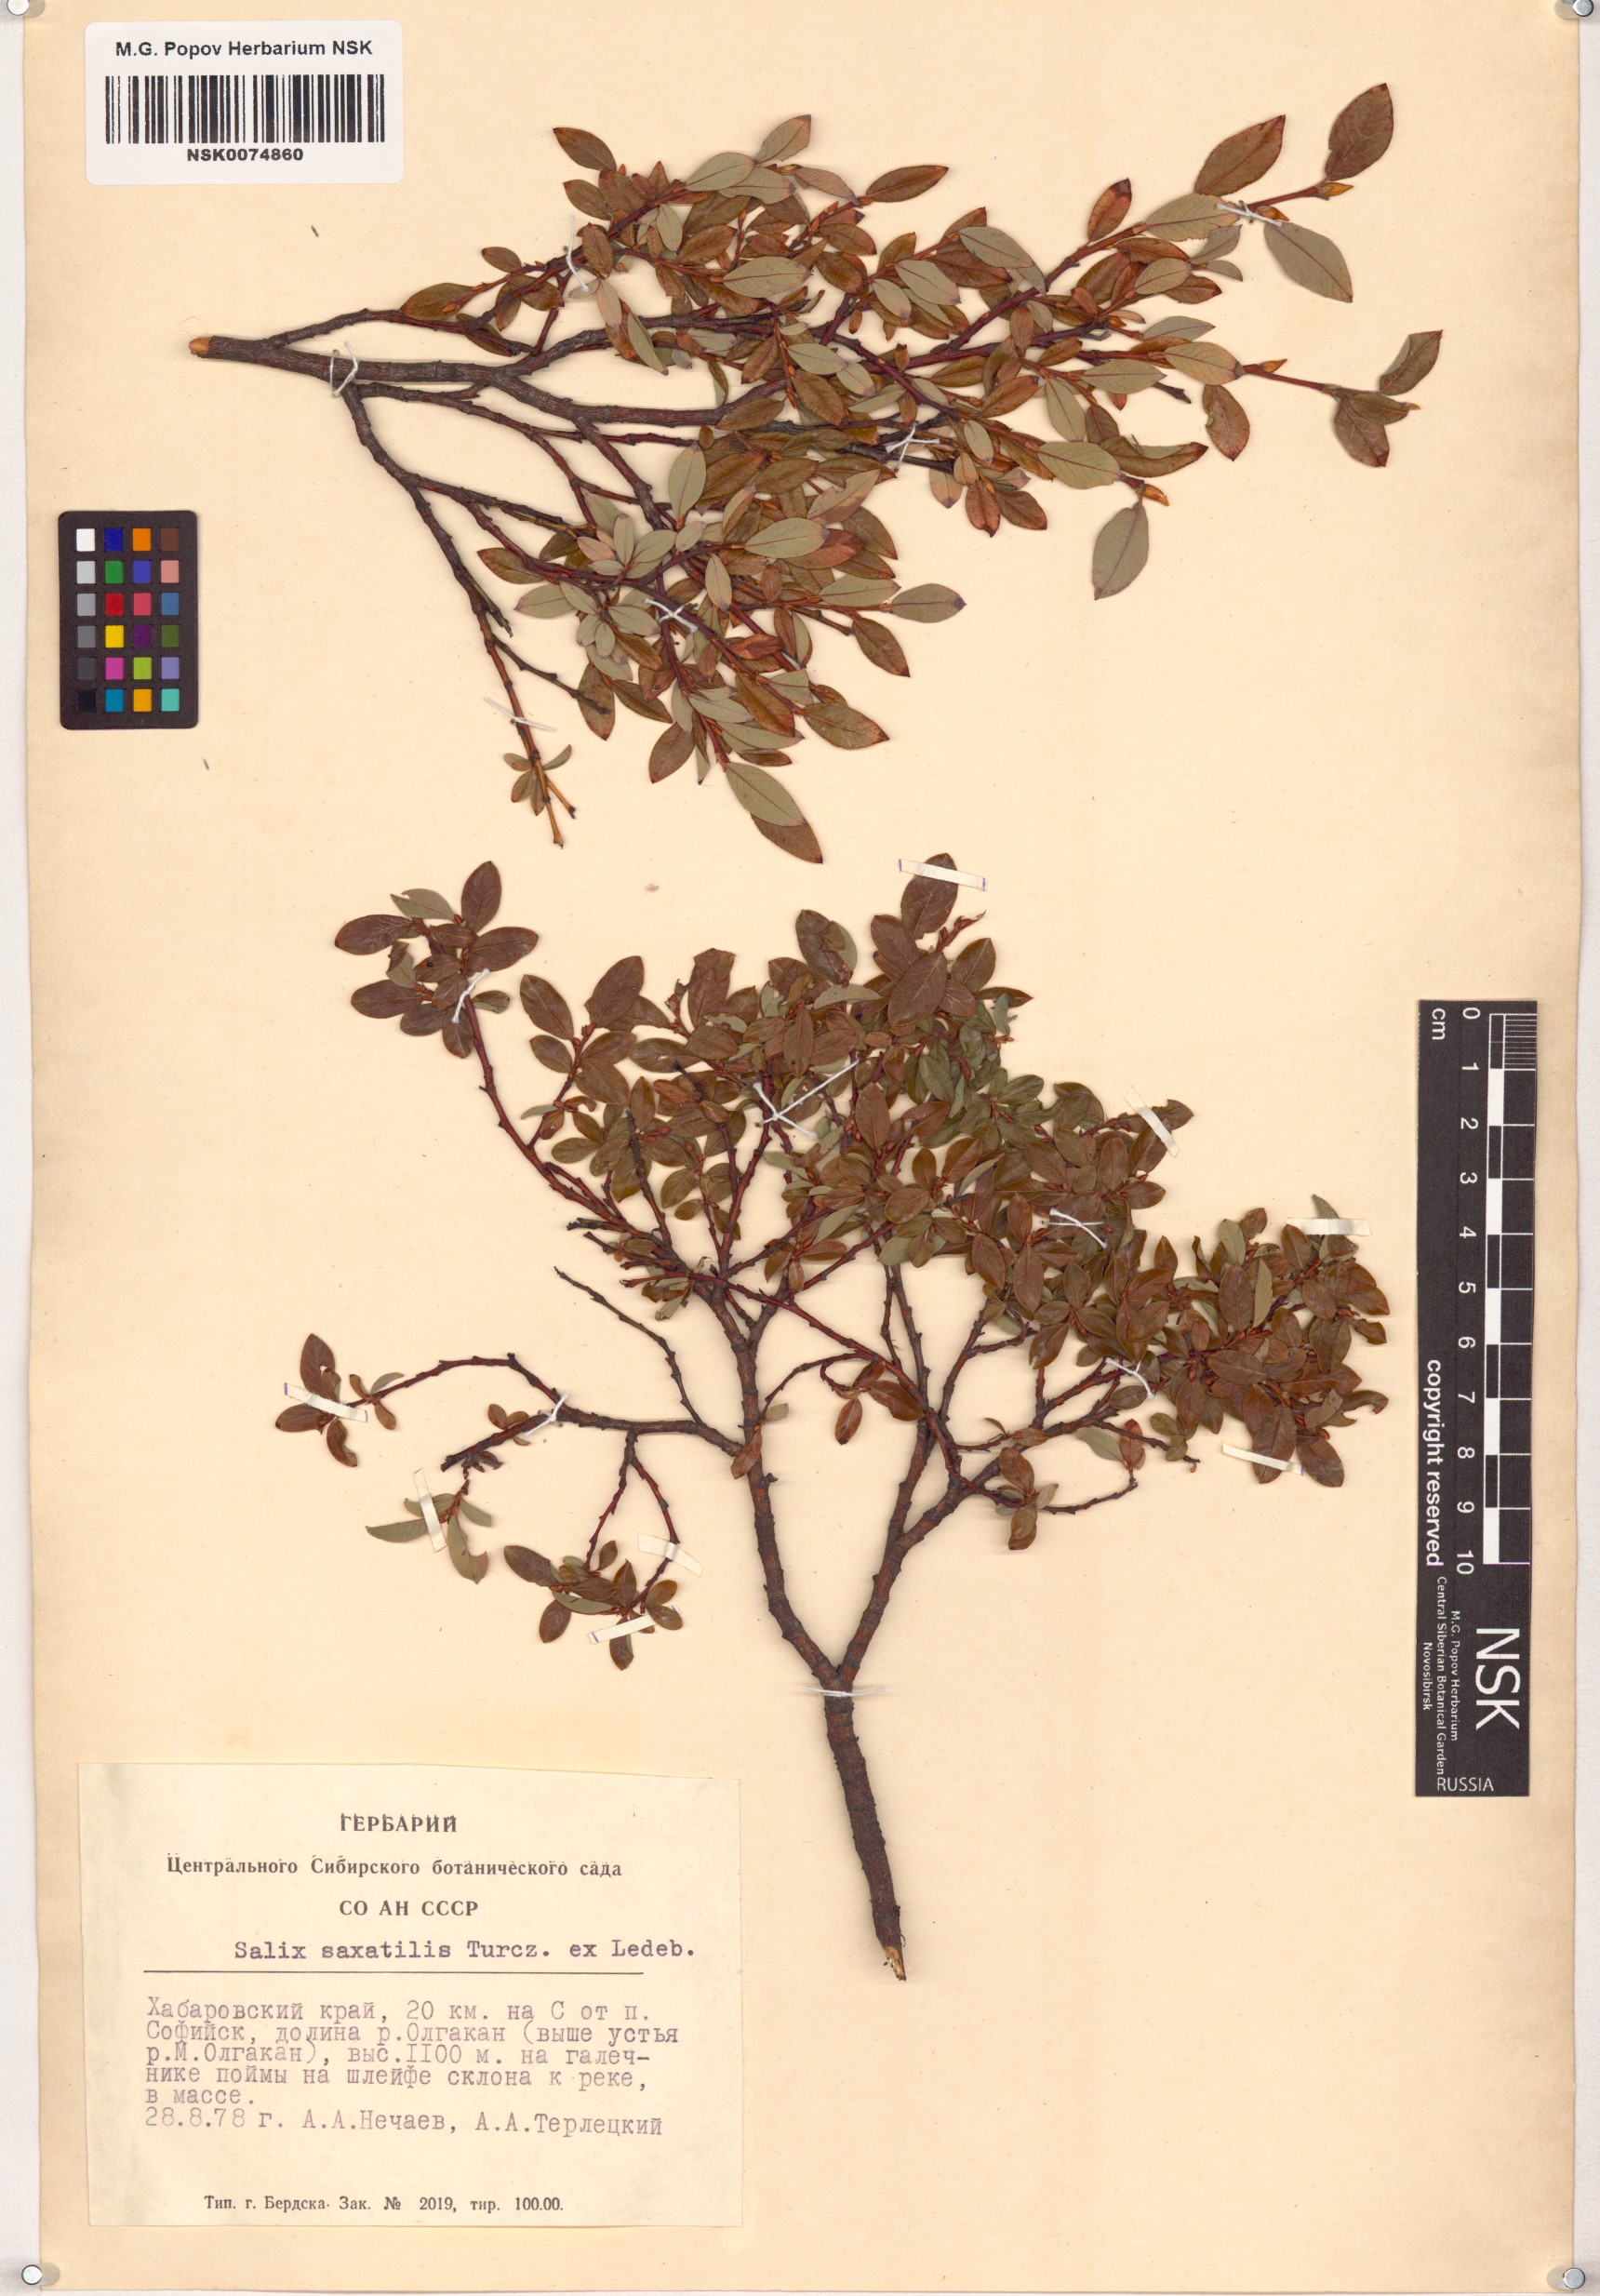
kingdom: Plantae
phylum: Tracheophyta
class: Magnoliopsida
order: Malpighiales
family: Salicaceae
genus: Salix
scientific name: Salix saxatilis
